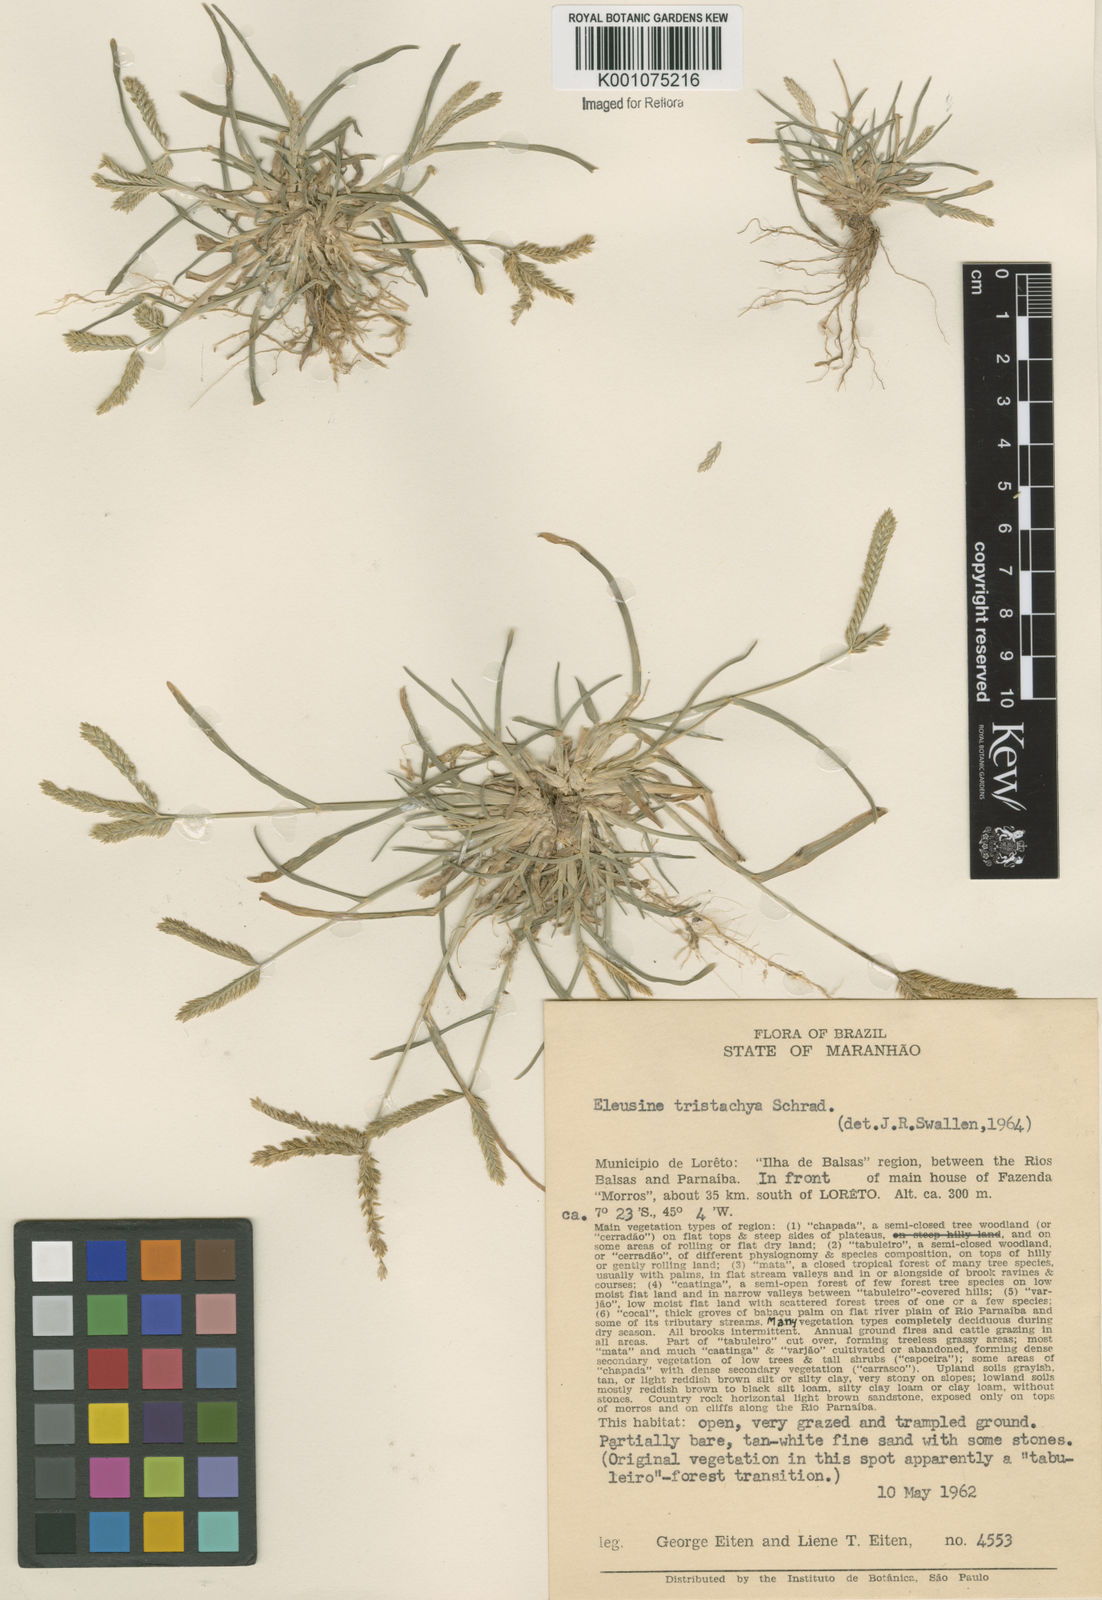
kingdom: Plantae
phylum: Tracheophyta
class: Liliopsida
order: Poales
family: Poaceae
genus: Eleusine
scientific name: Eleusine indica
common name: Yard-grass
